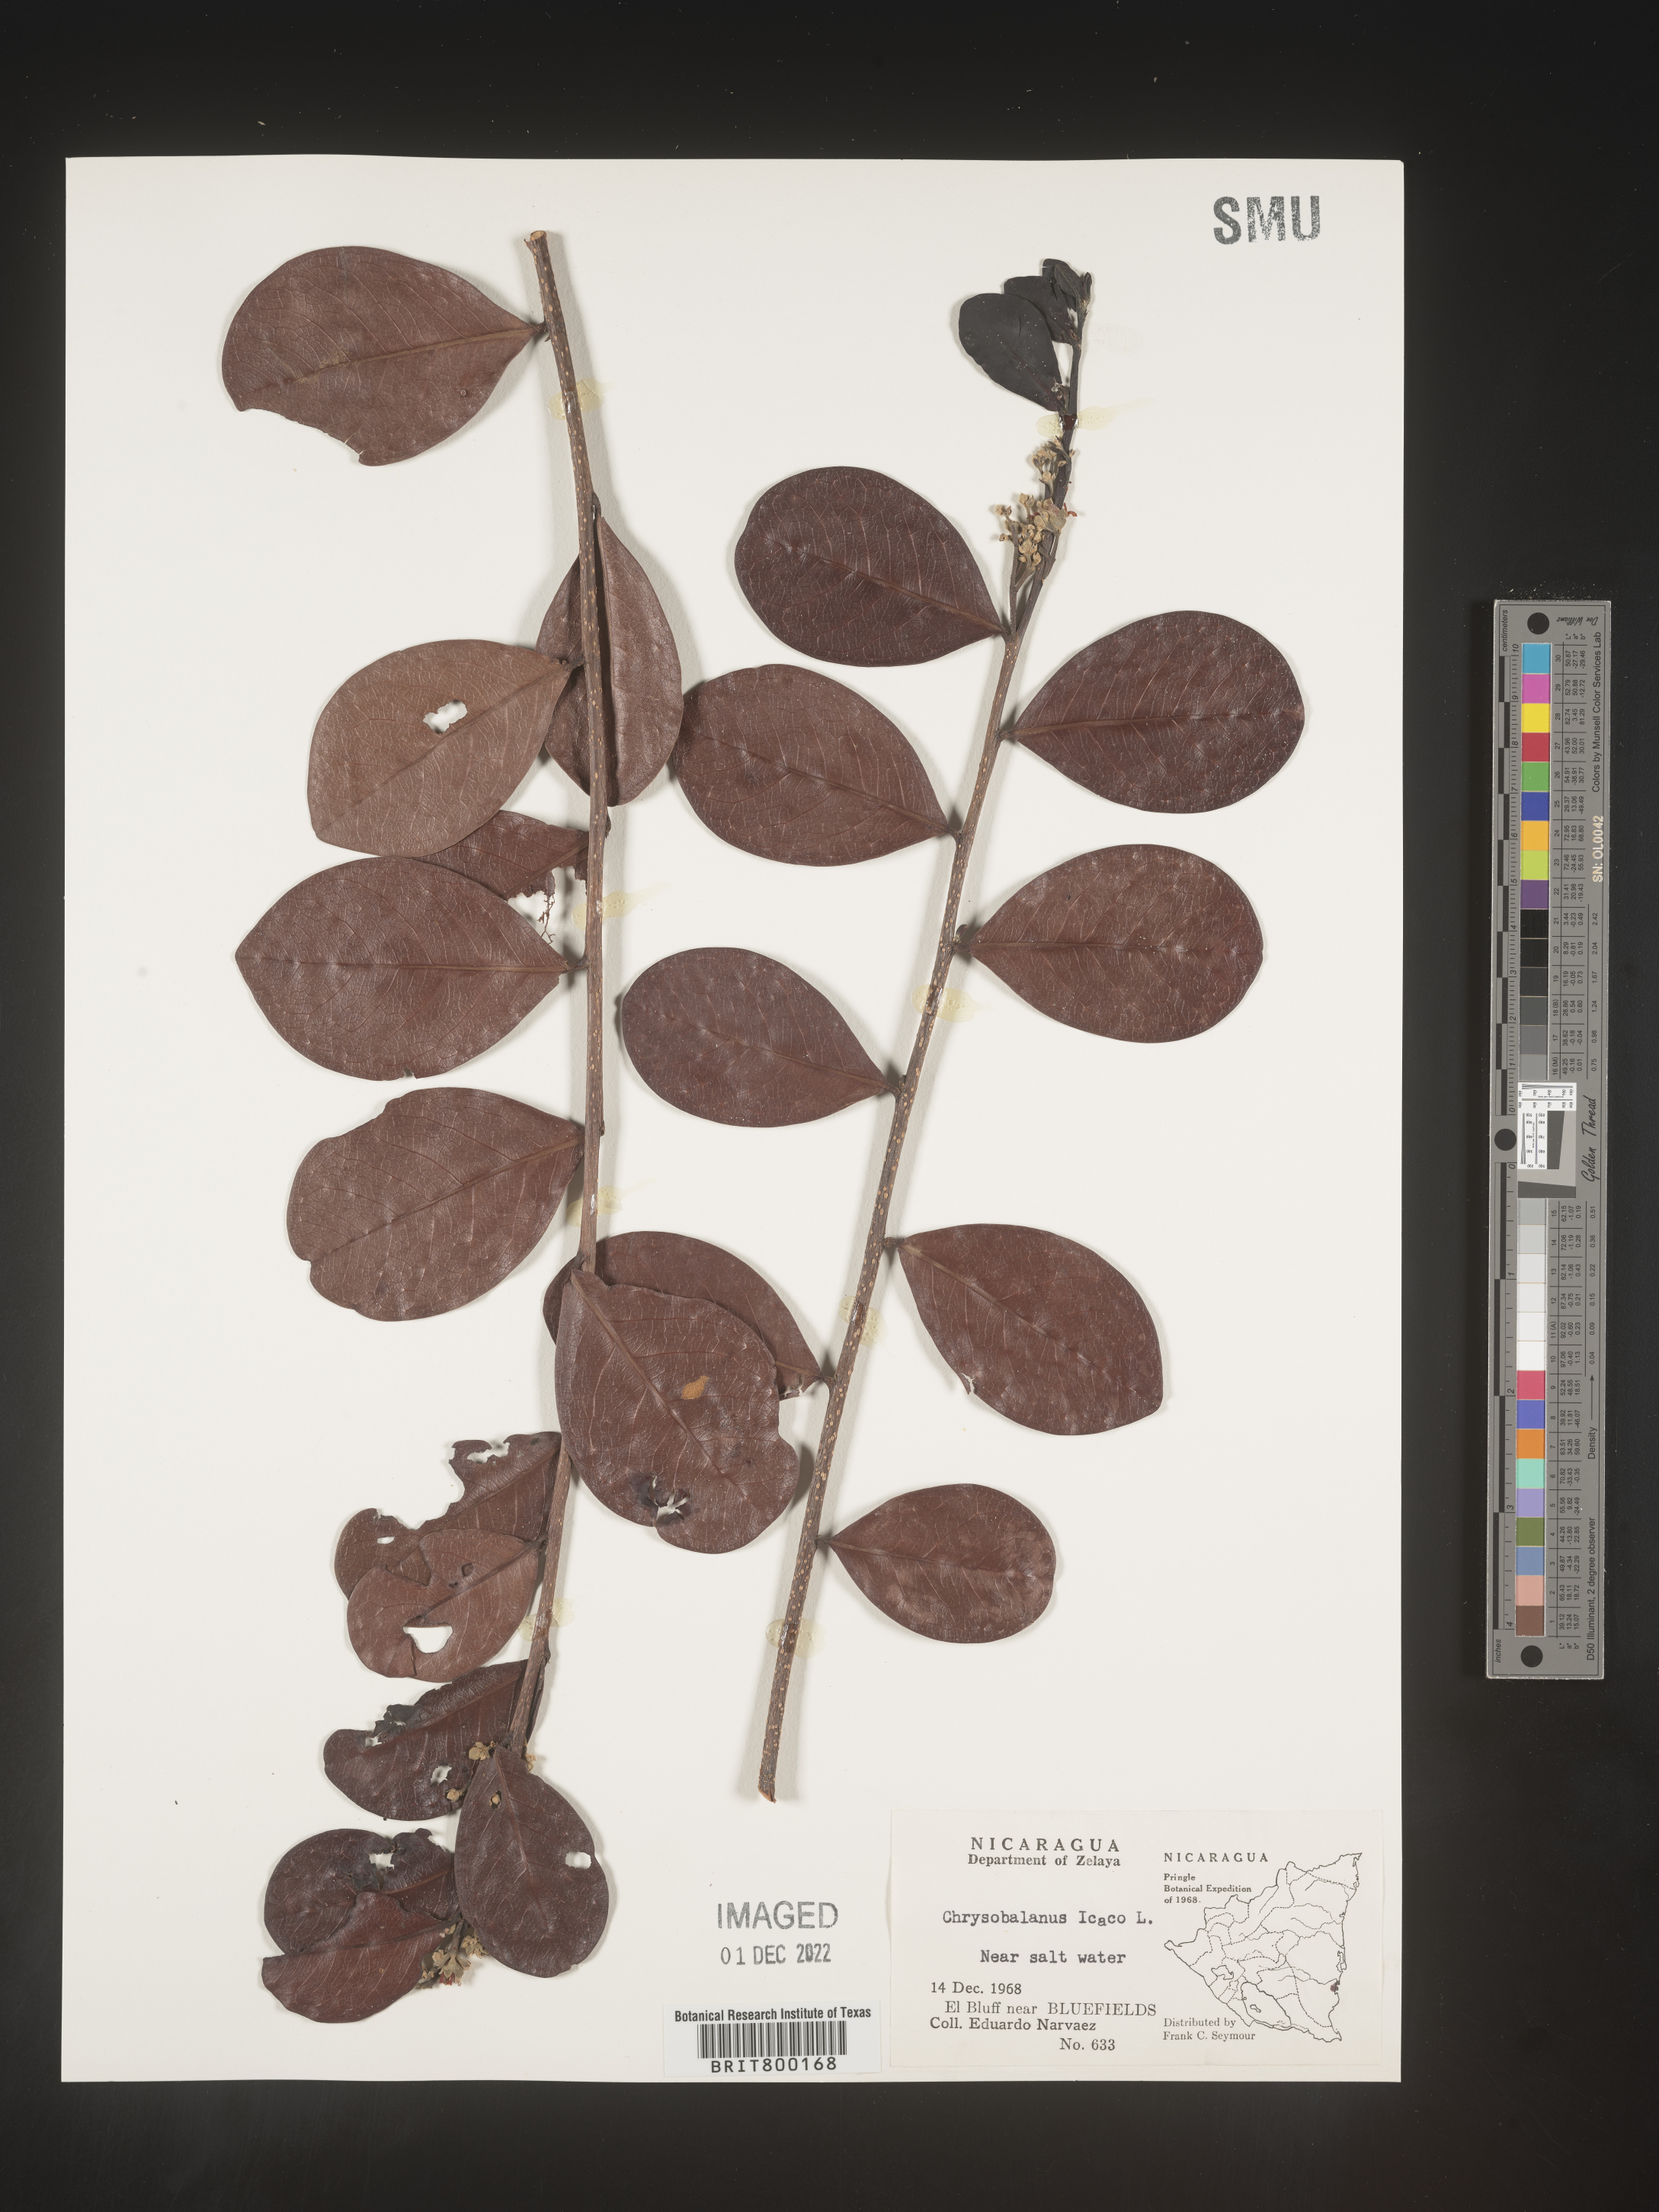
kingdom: Plantae
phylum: Tracheophyta
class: Magnoliopsida
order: Malpighiales
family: Chrysobalanaceae
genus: Chrysobalanus
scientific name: Chrysobalanus
